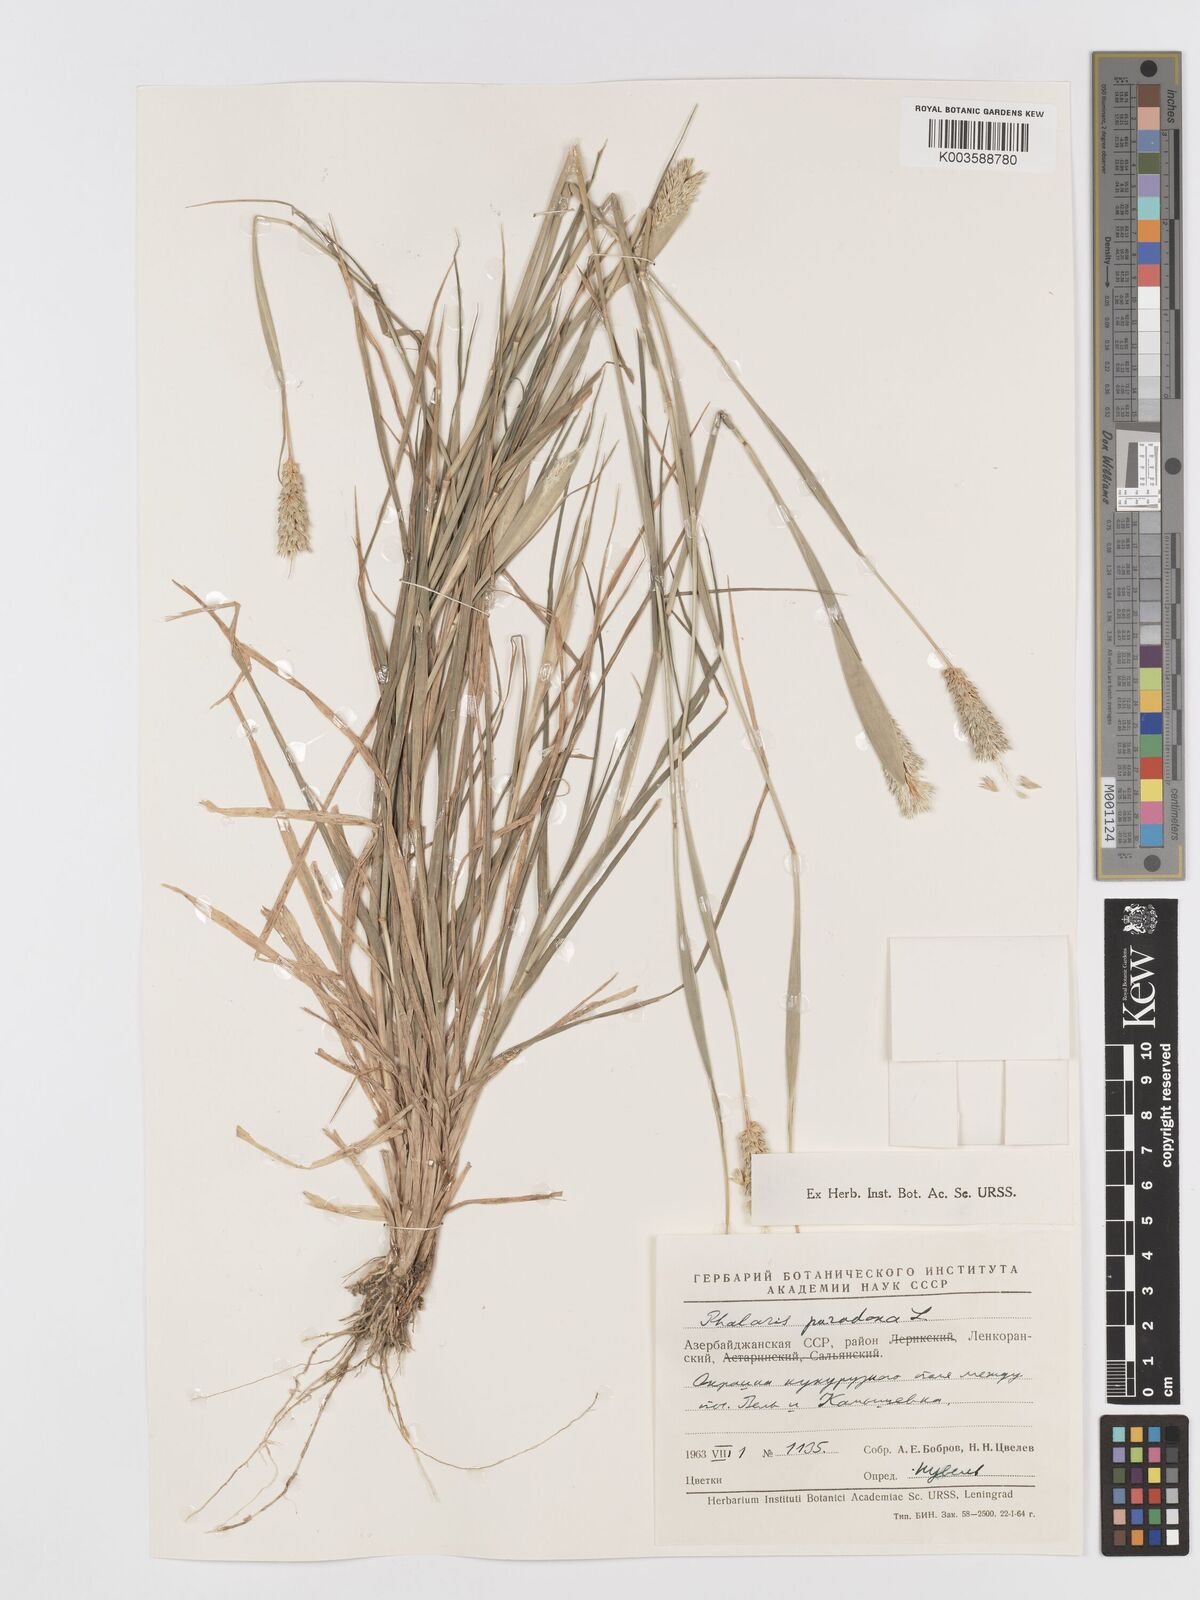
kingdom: Plantae
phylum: Tracheophyta
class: Liliopsida
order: Poales
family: Poaceae
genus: Phalaris
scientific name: Phalaris paradoxa
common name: Awned canary-grass
